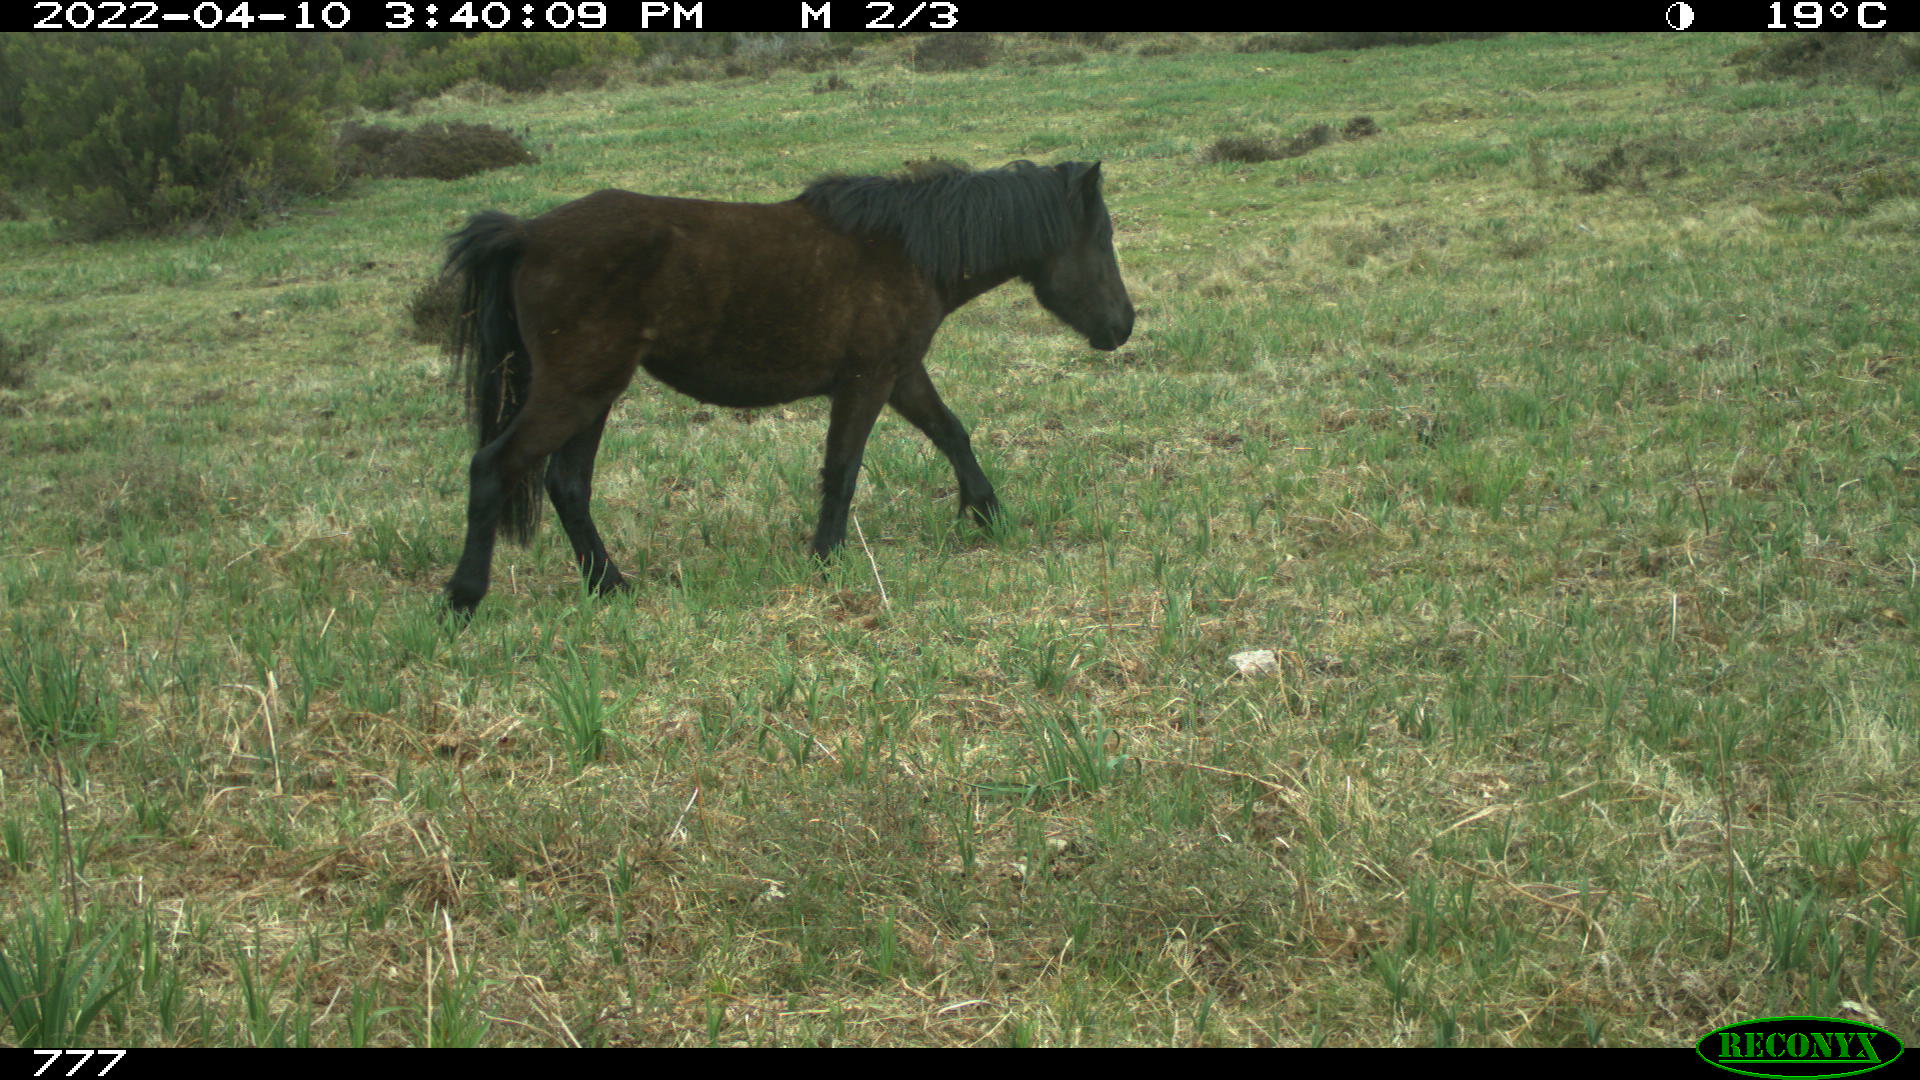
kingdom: Animalia
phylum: Chordata
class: Mammalia
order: Perissodactyla
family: Equidae
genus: Equus
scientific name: Equus caballus
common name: Horse
